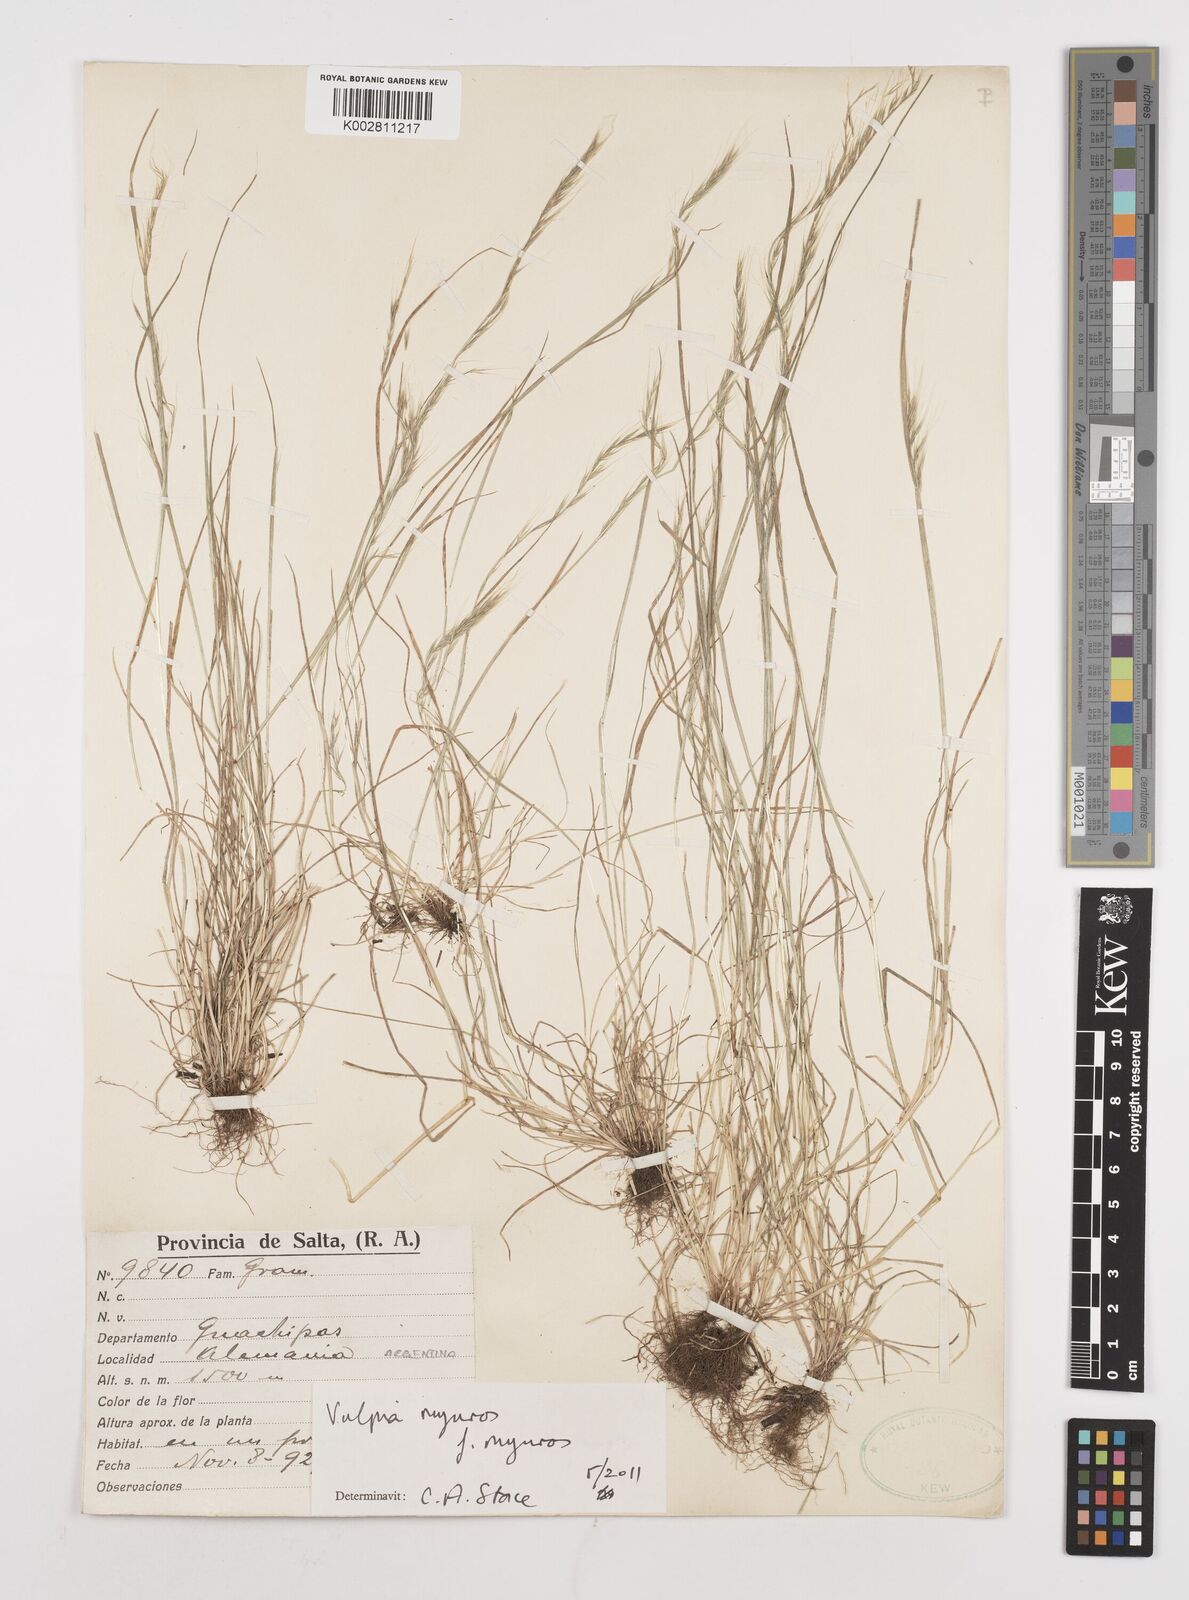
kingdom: Plantae
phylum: Tracheophyta
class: Liliopsida
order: Poales
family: Poaceae
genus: Festuca
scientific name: Festuca myuros
